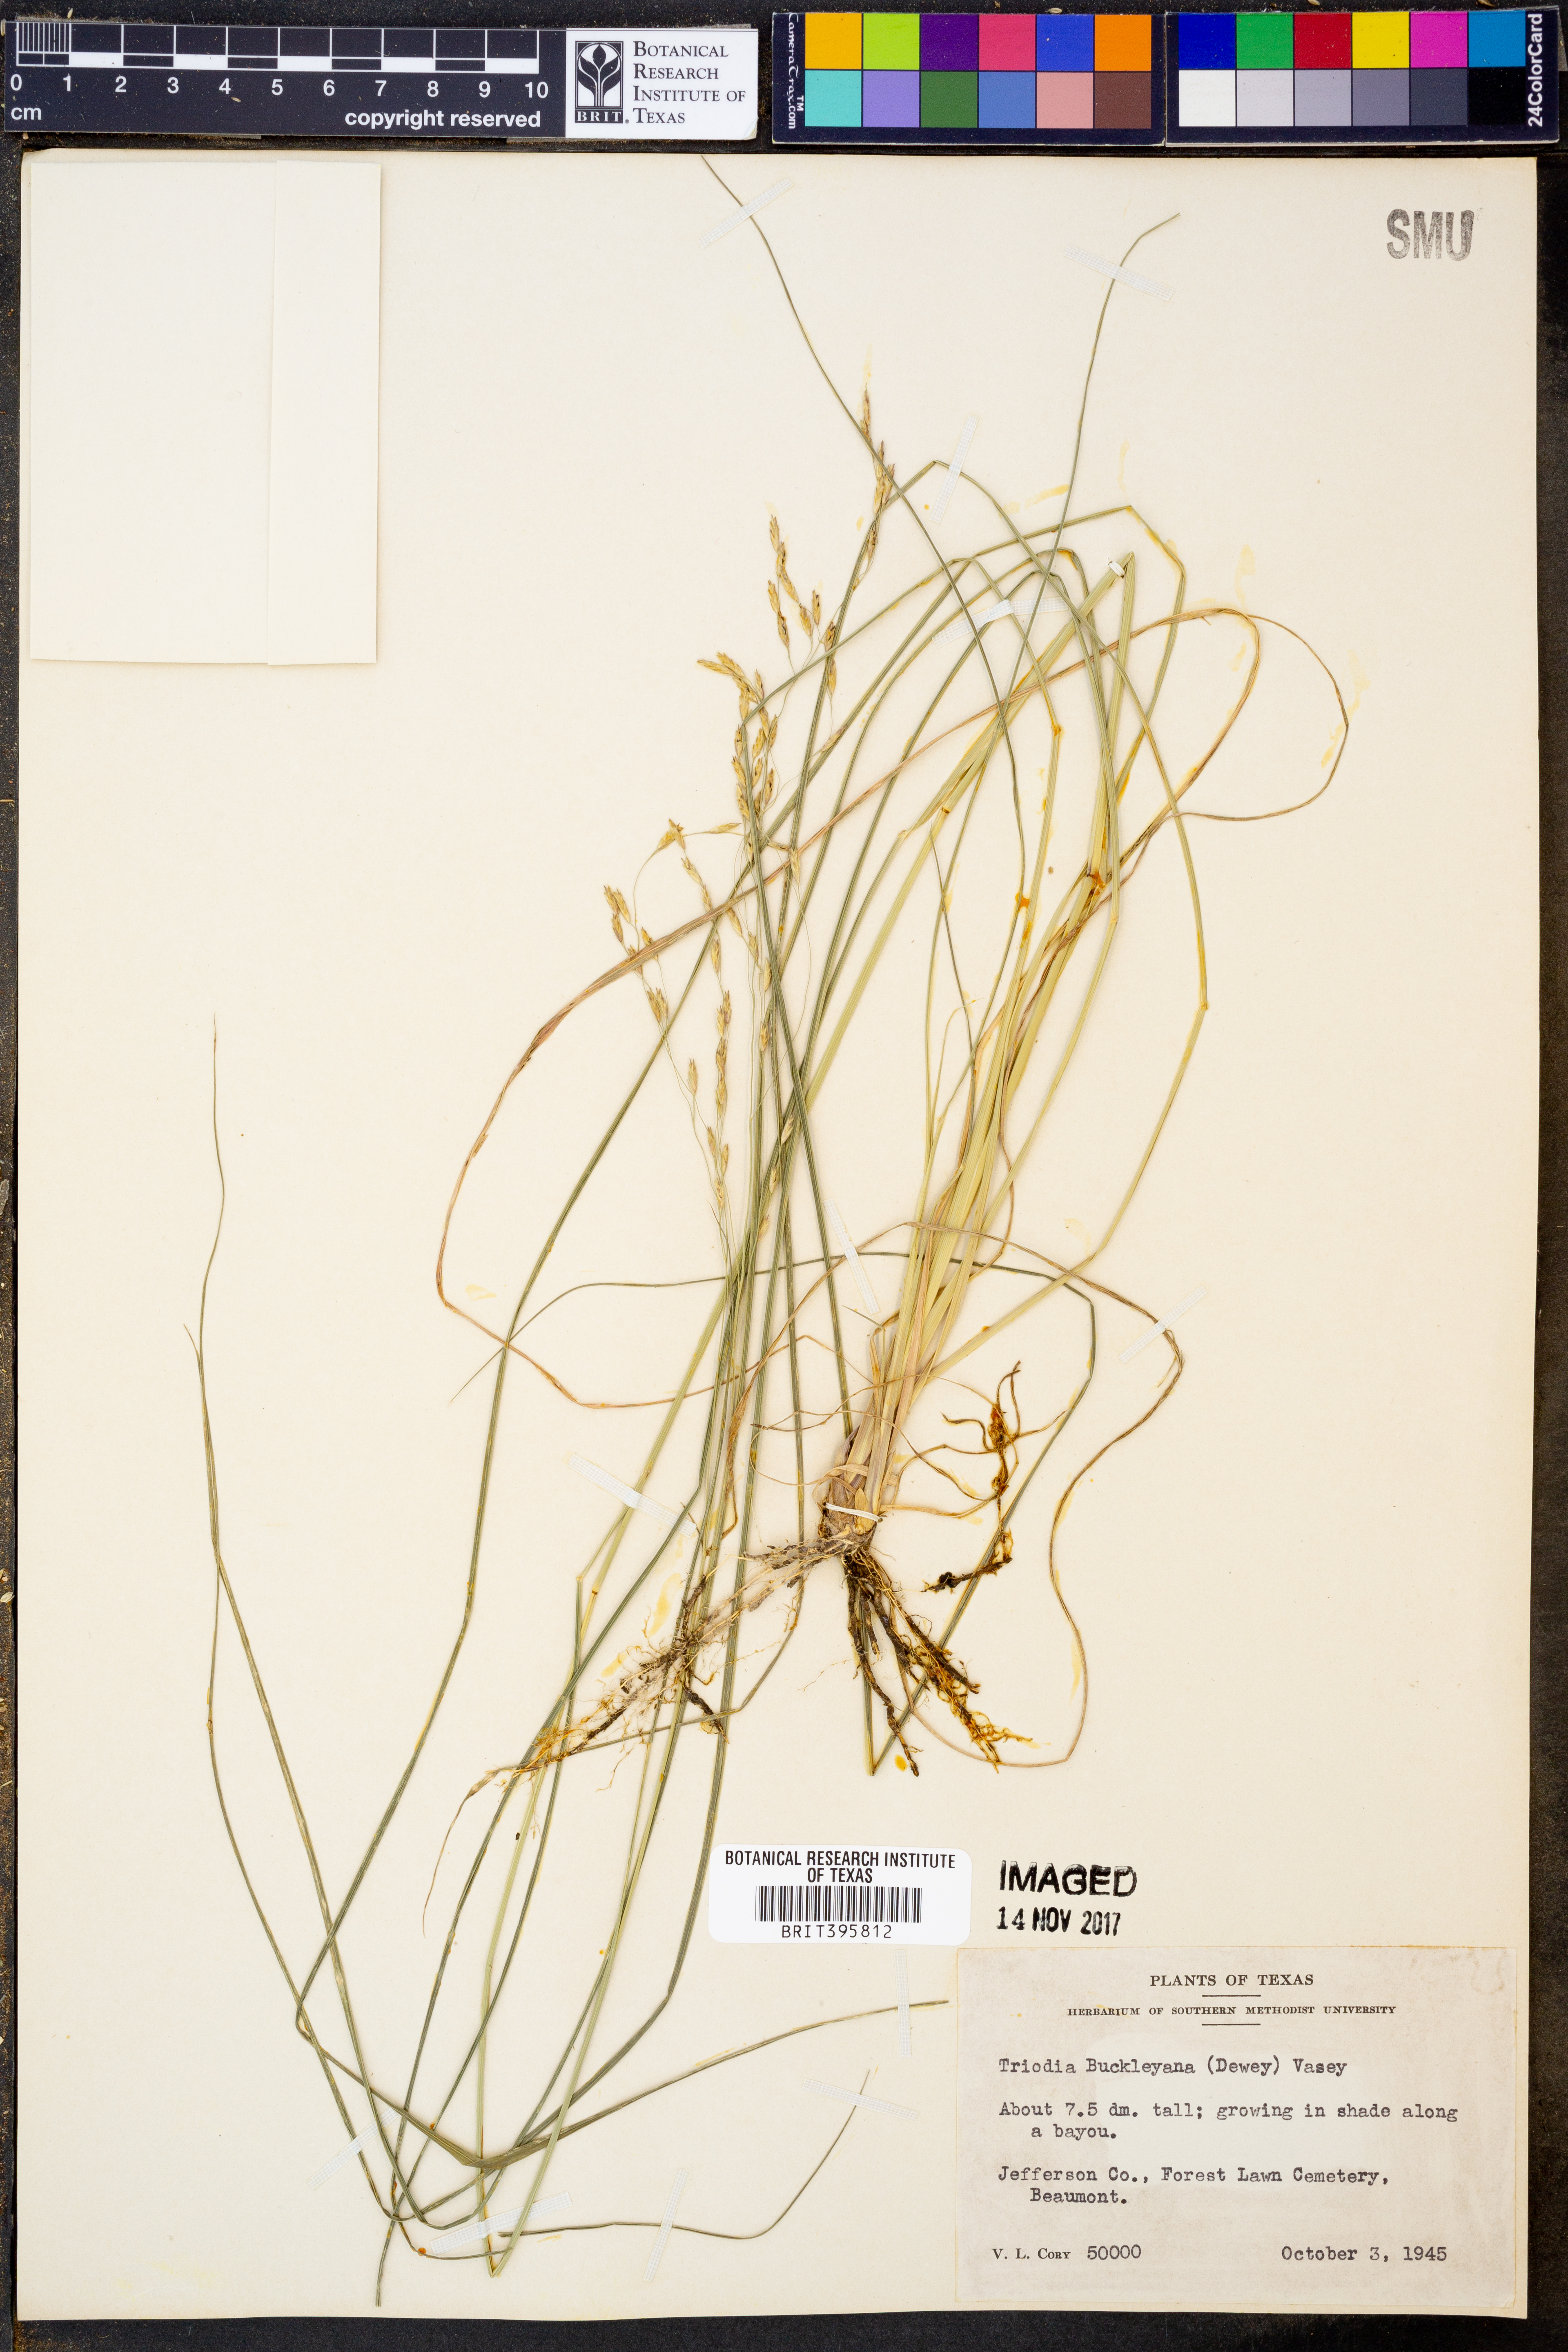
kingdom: Plantae
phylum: Tracheophyta
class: Liliopsida
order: Poales
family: Poaceae
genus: Tridentopsis
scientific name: Tridentopsis buckleyana
